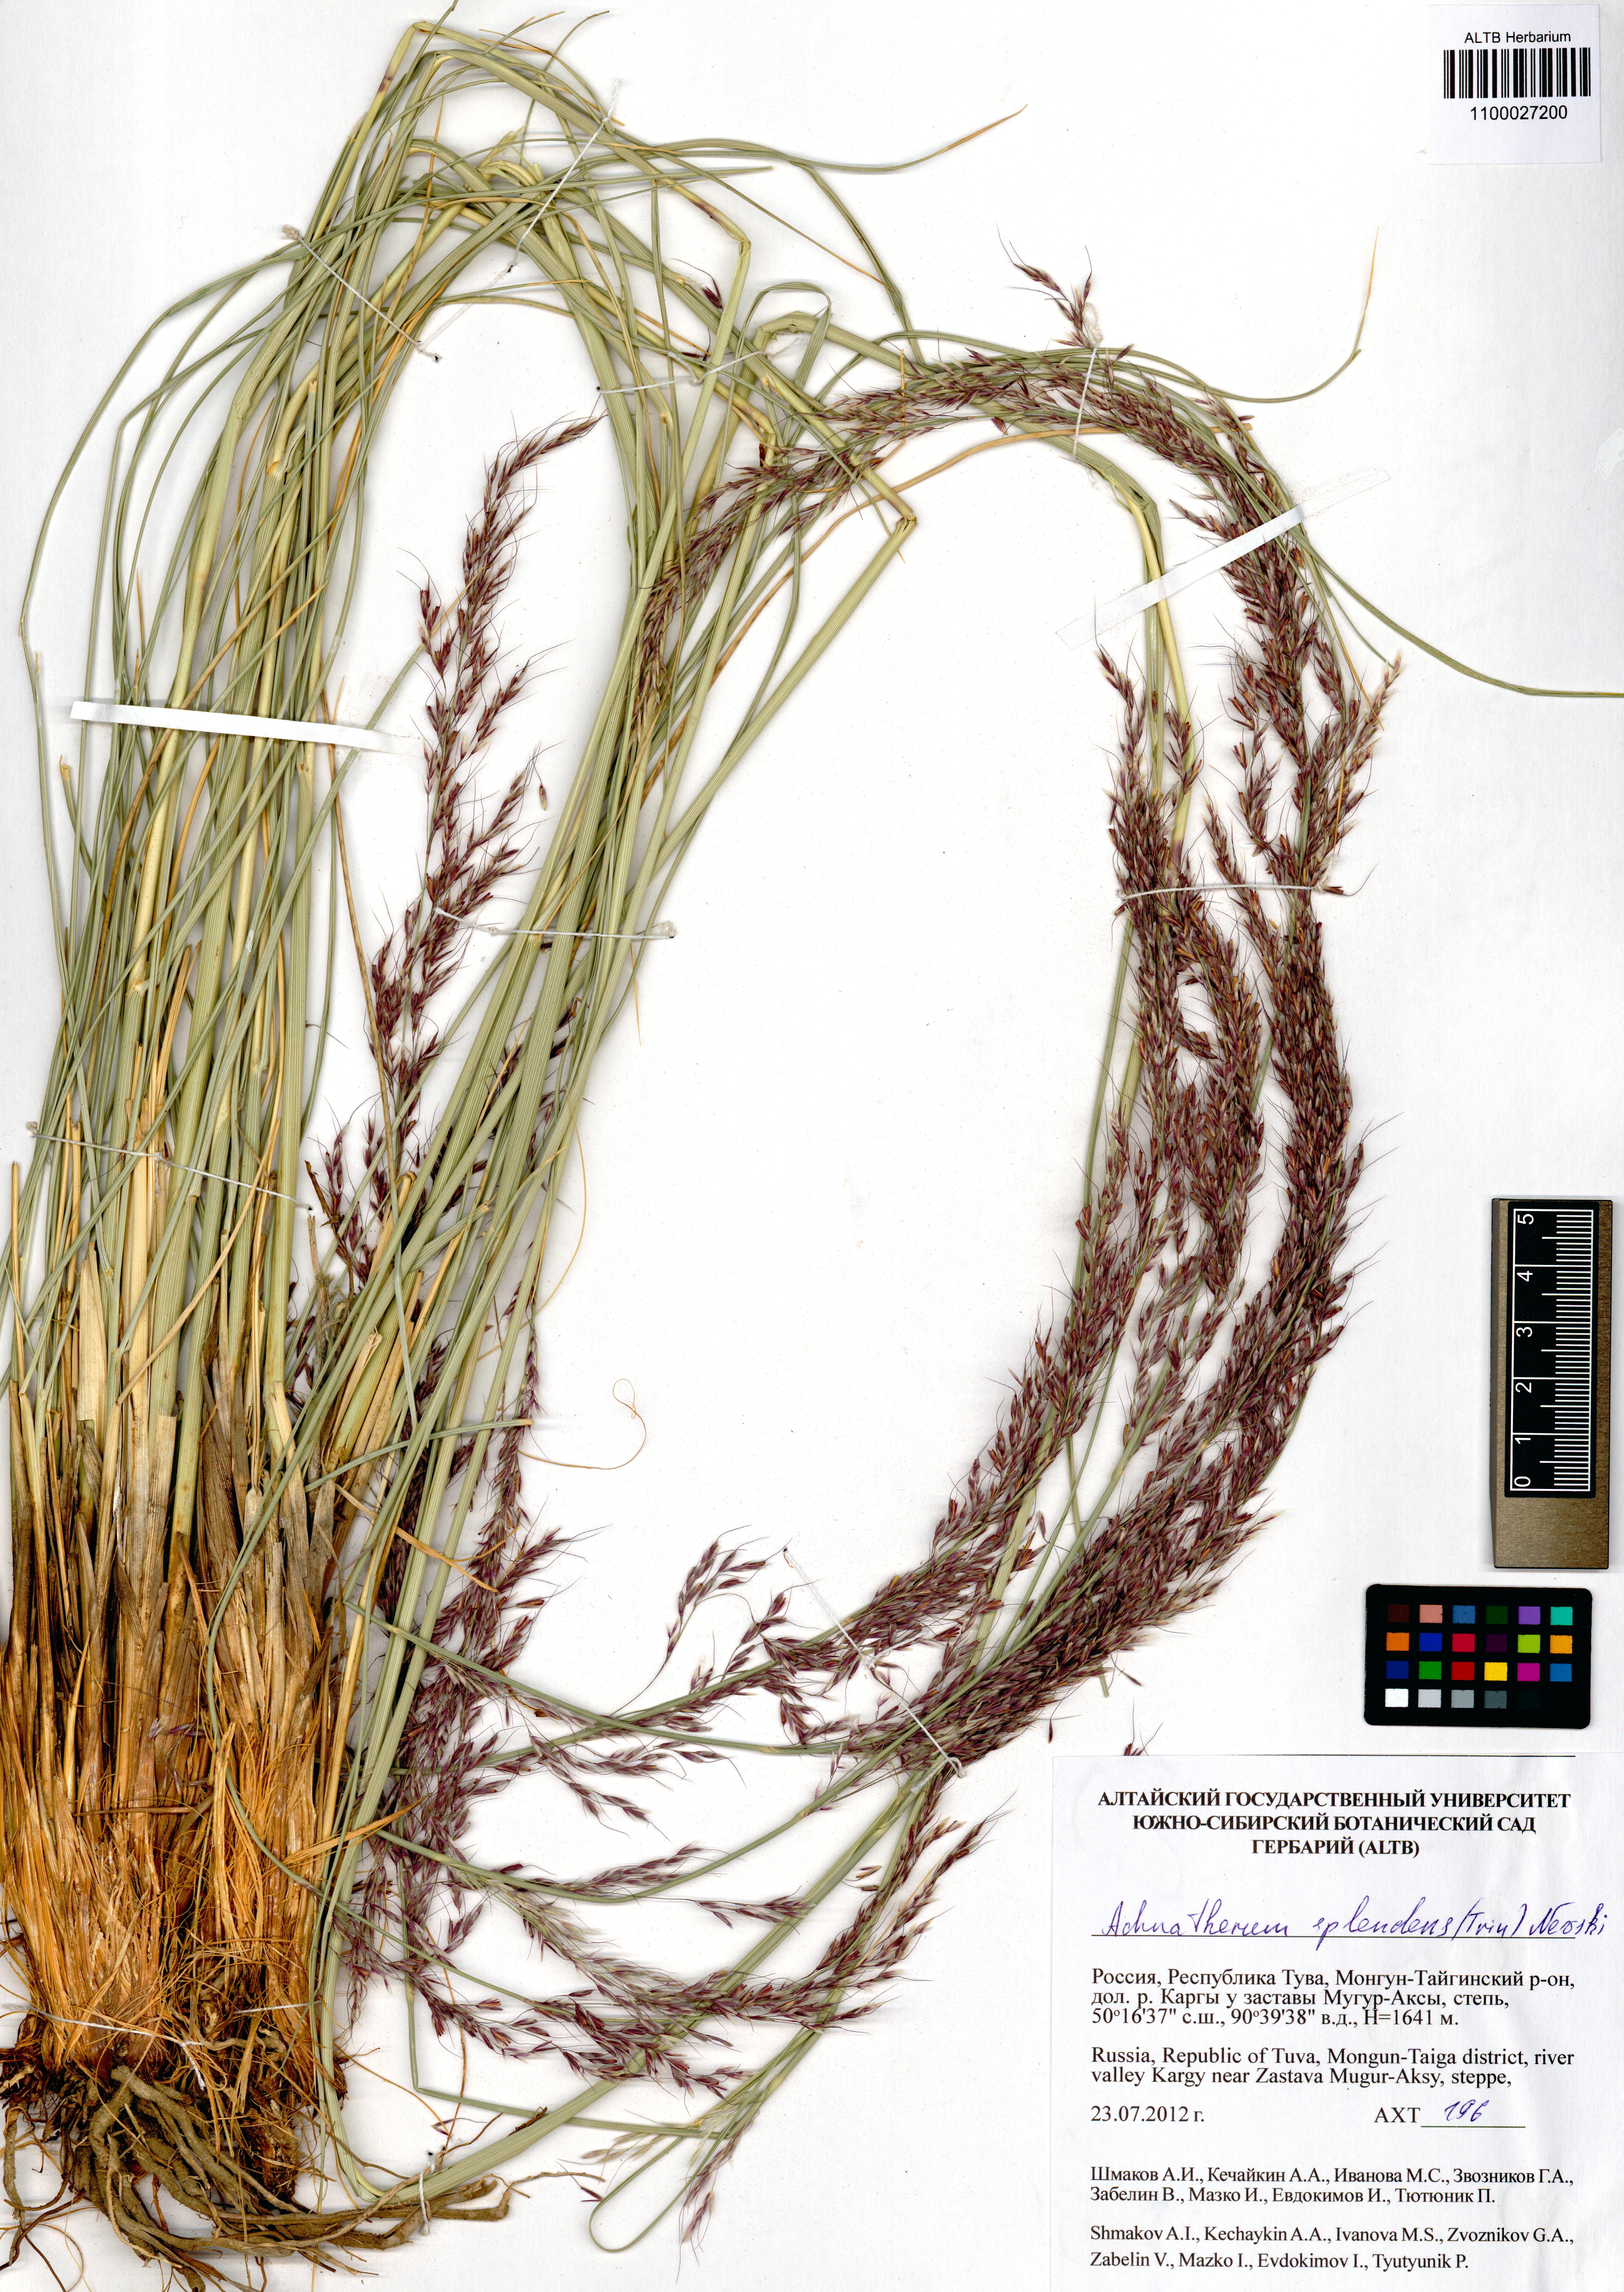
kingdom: Plantae
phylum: Tracheophyta
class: Liliopsida
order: Poales
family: Poaceae
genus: Neotrinia
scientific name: Neotrinia splendens
